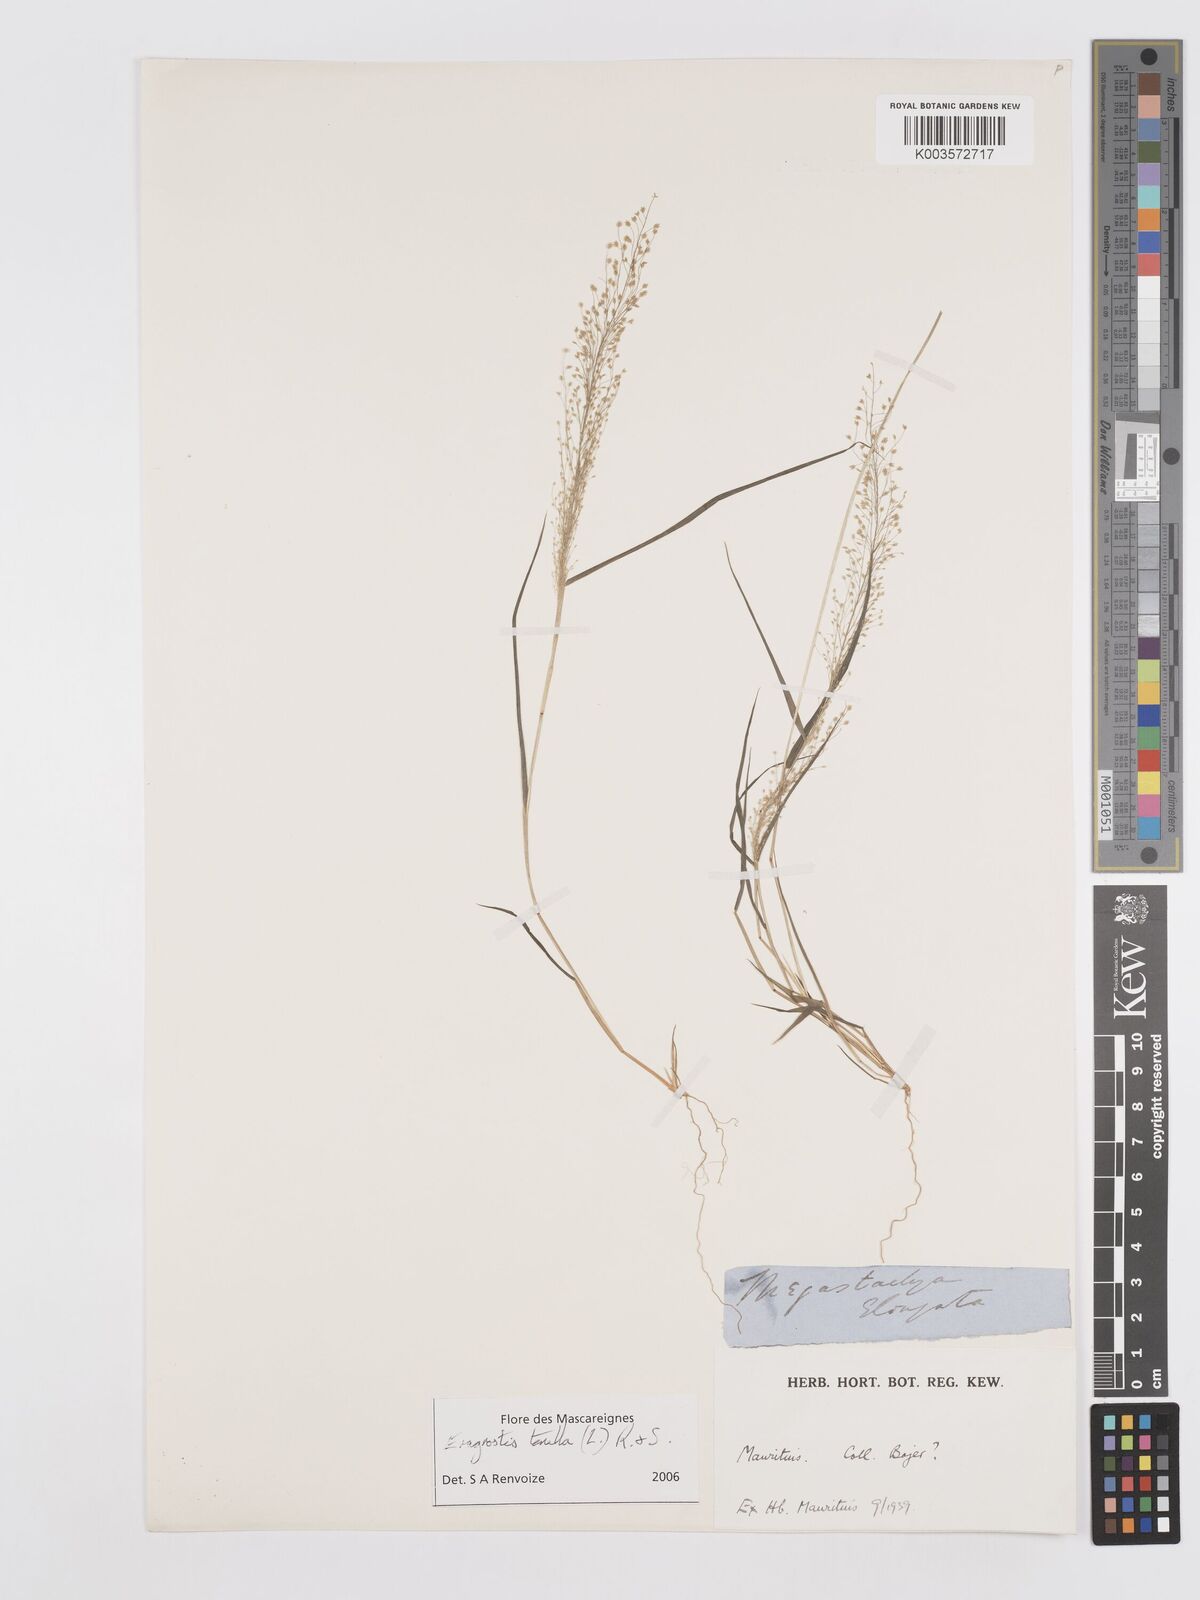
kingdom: Plantae
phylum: Tracheophyta
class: Liliopsida
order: Poales
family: Poaceae
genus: Eragrostis
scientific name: Eragrostis tenella
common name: Japanese lovegrass
